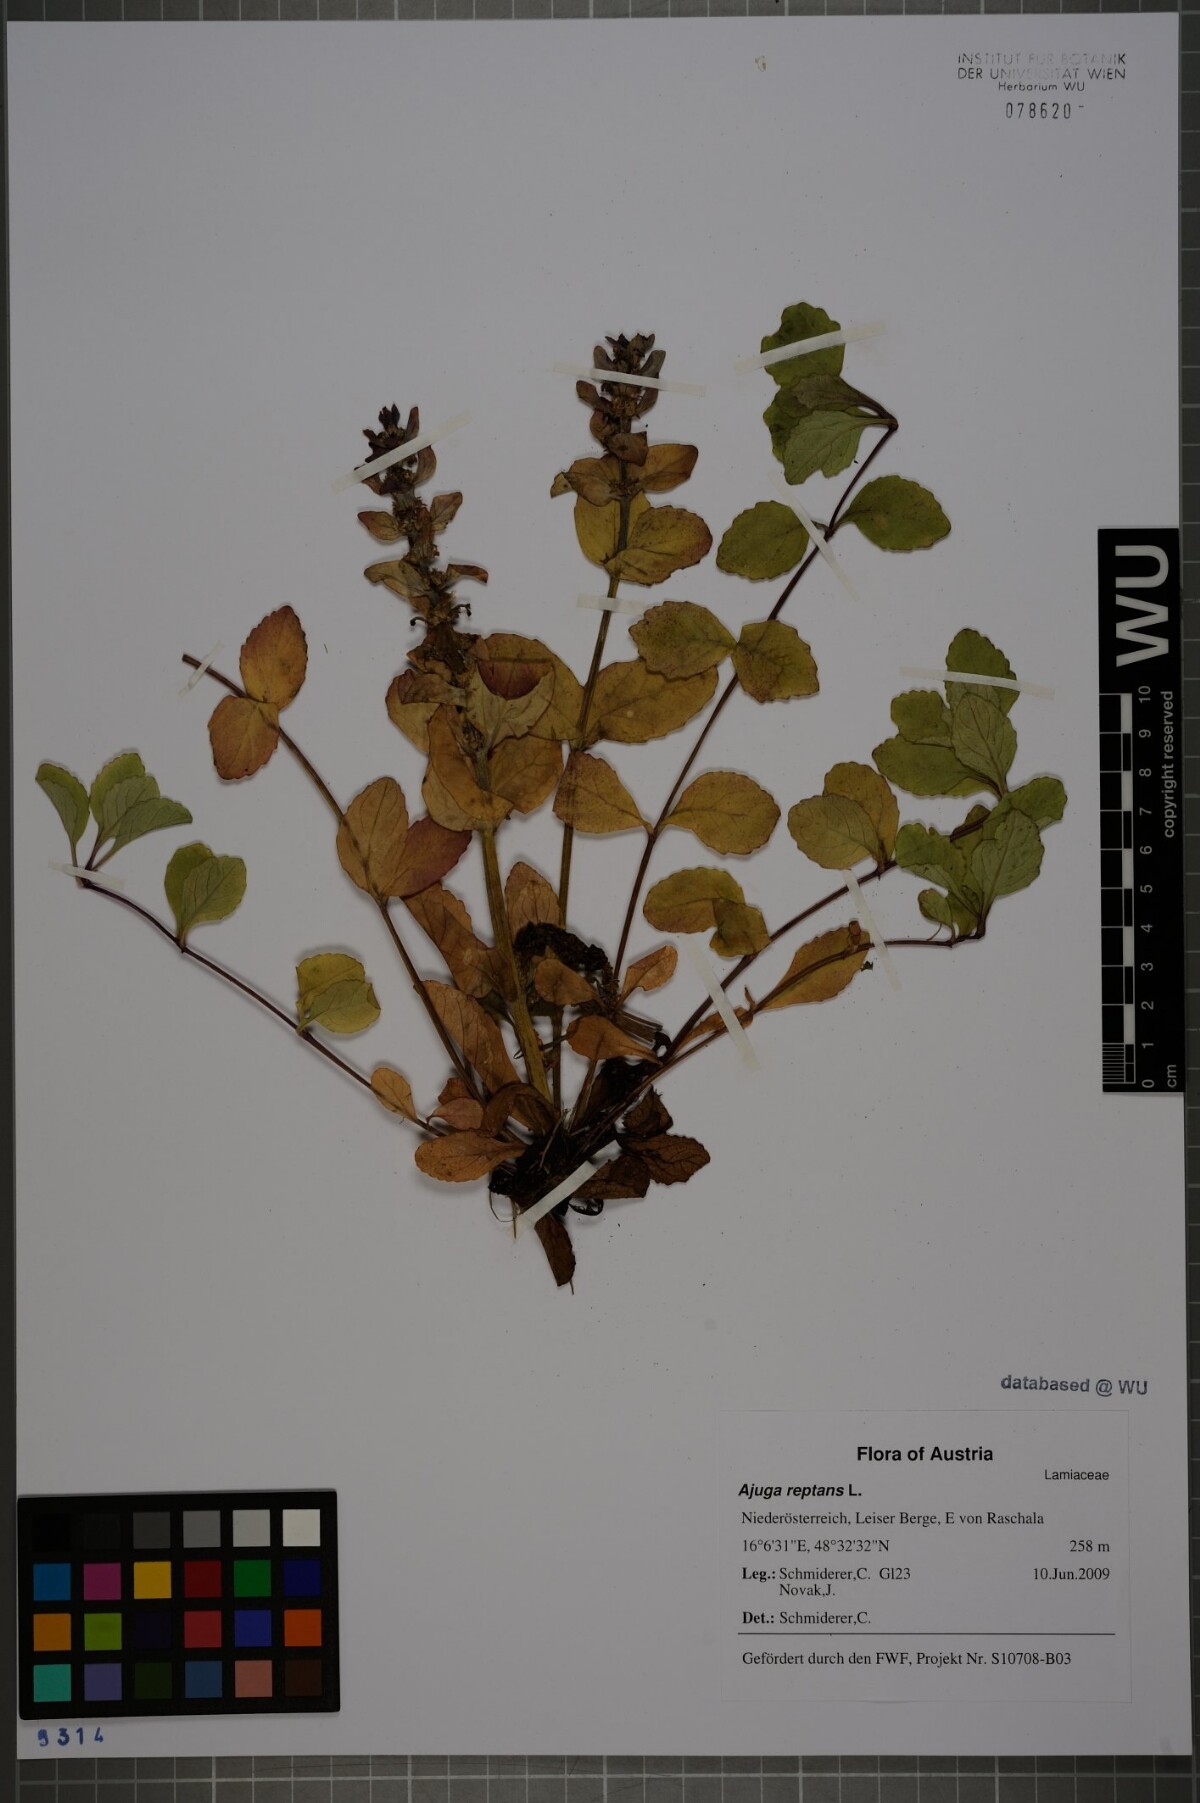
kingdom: Plantae
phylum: Tracheophyta
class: Magnoliopsida
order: Lamiales
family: Lamiaceae
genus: Ajuga
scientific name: Ajuga reptans
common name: Bugle
